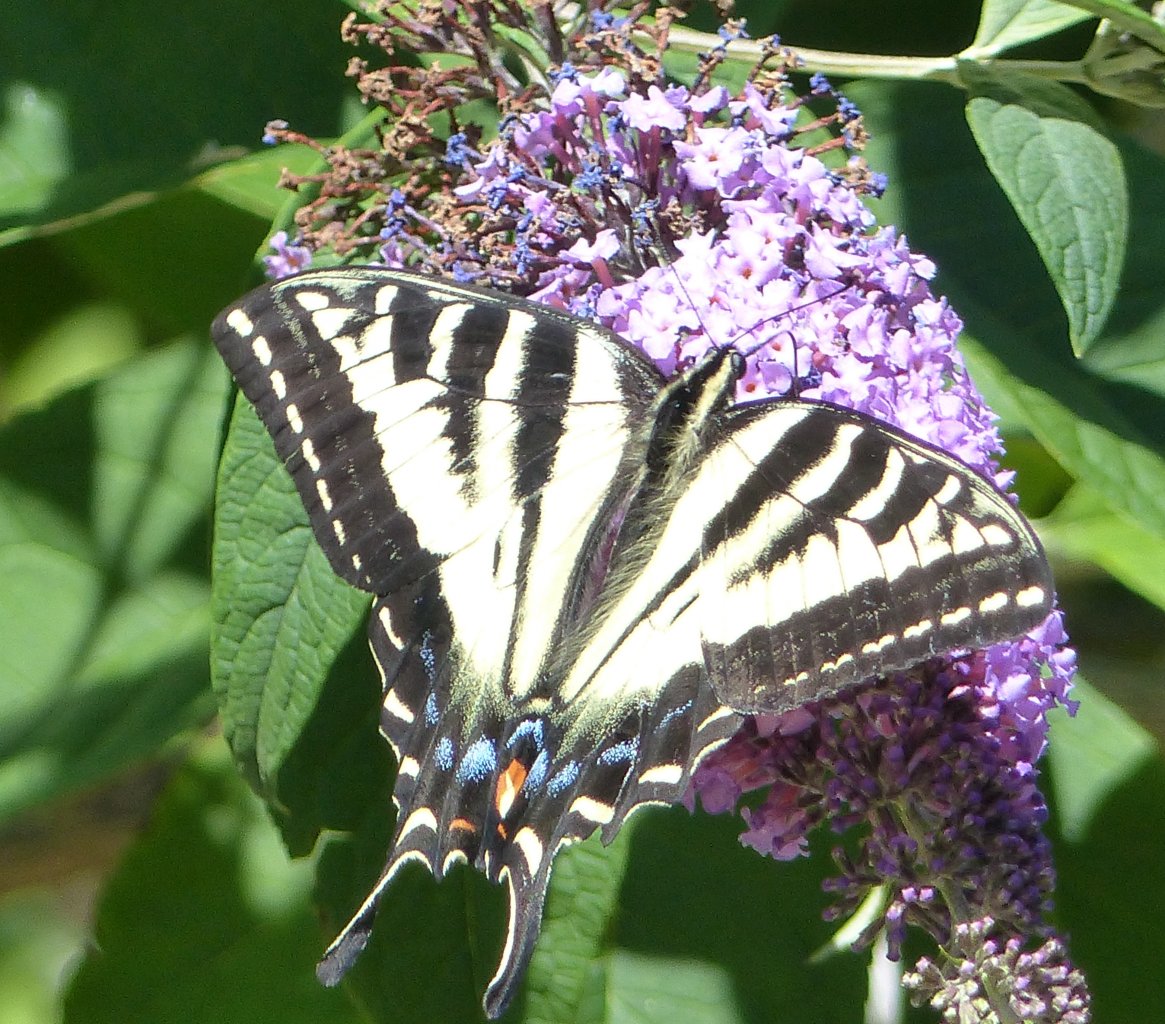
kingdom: Animalia
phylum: Arthropoda
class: Insecta
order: Lepidoptera
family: Papilionidae
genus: Pterourus
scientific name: Pterourus rutulus
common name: Western Tiger Swallowtail
